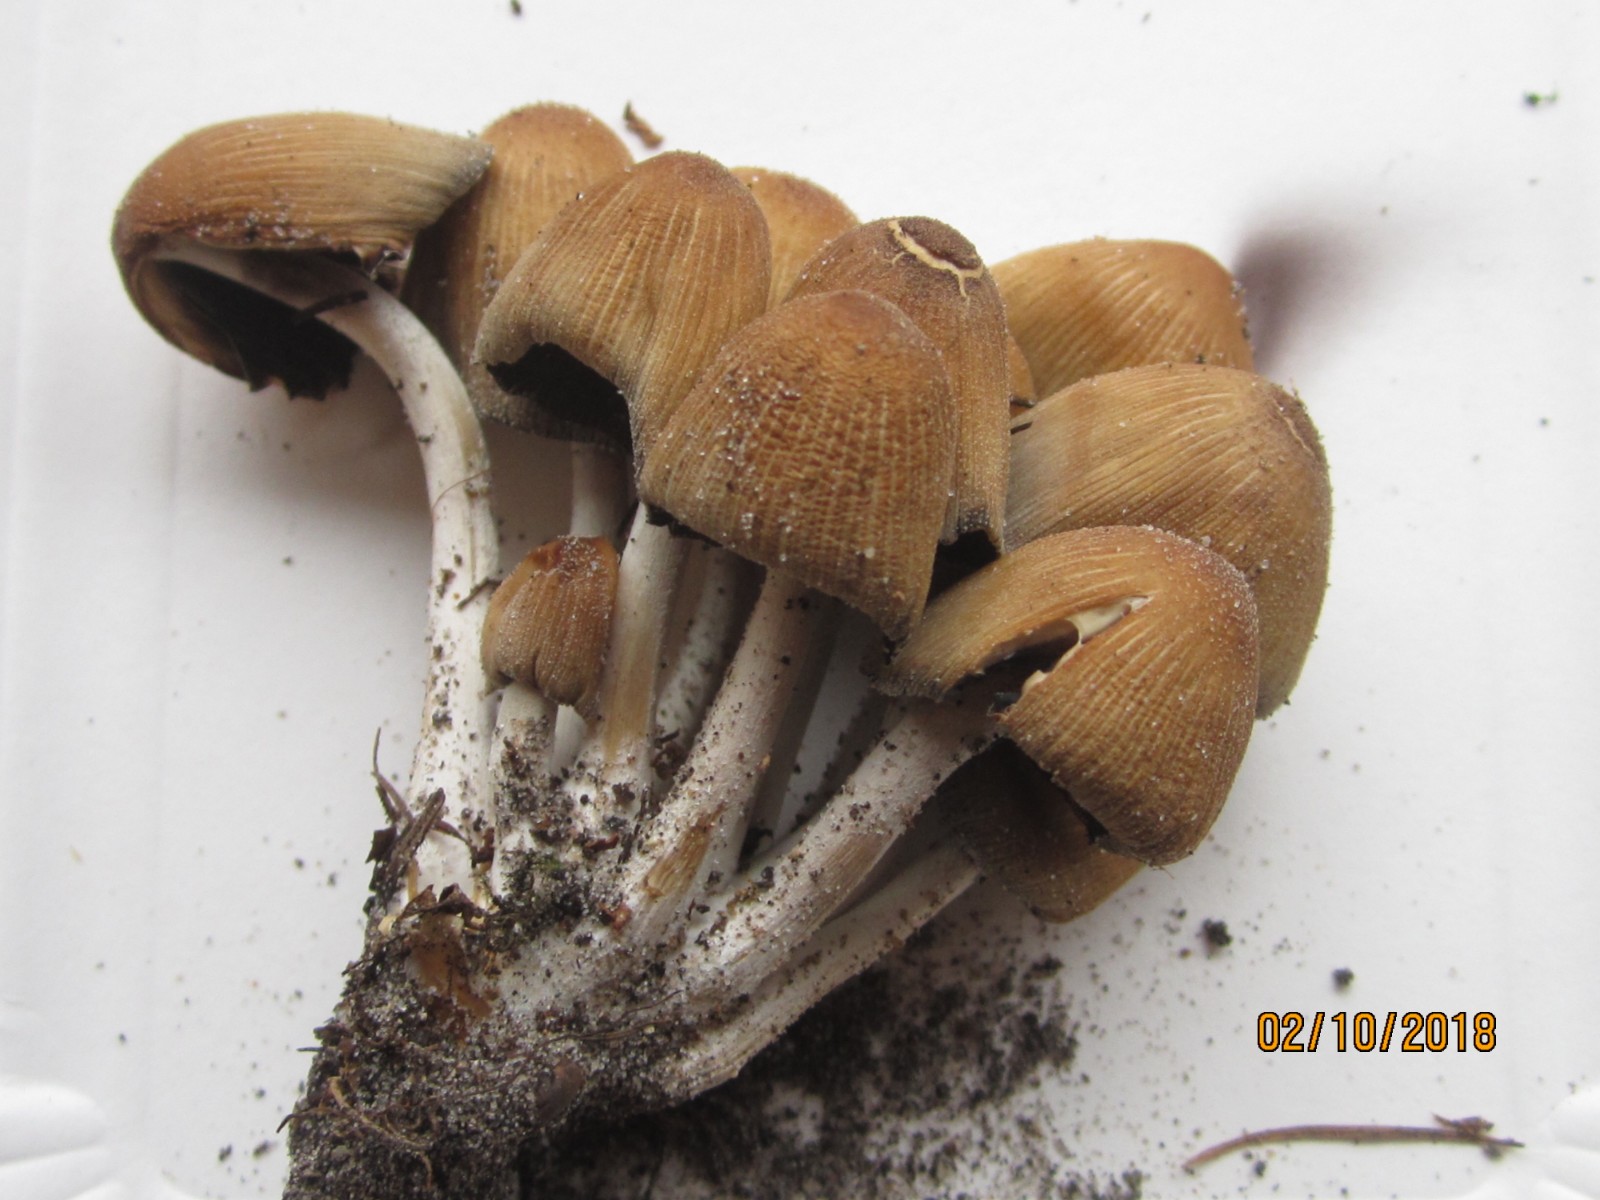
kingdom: Fungi
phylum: Basidiomycota
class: Agaricomycetes
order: Agaricales
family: Psathyrellaceae
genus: Coprinellus
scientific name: Coprinellus micaceus
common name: glimmer-blækhat
